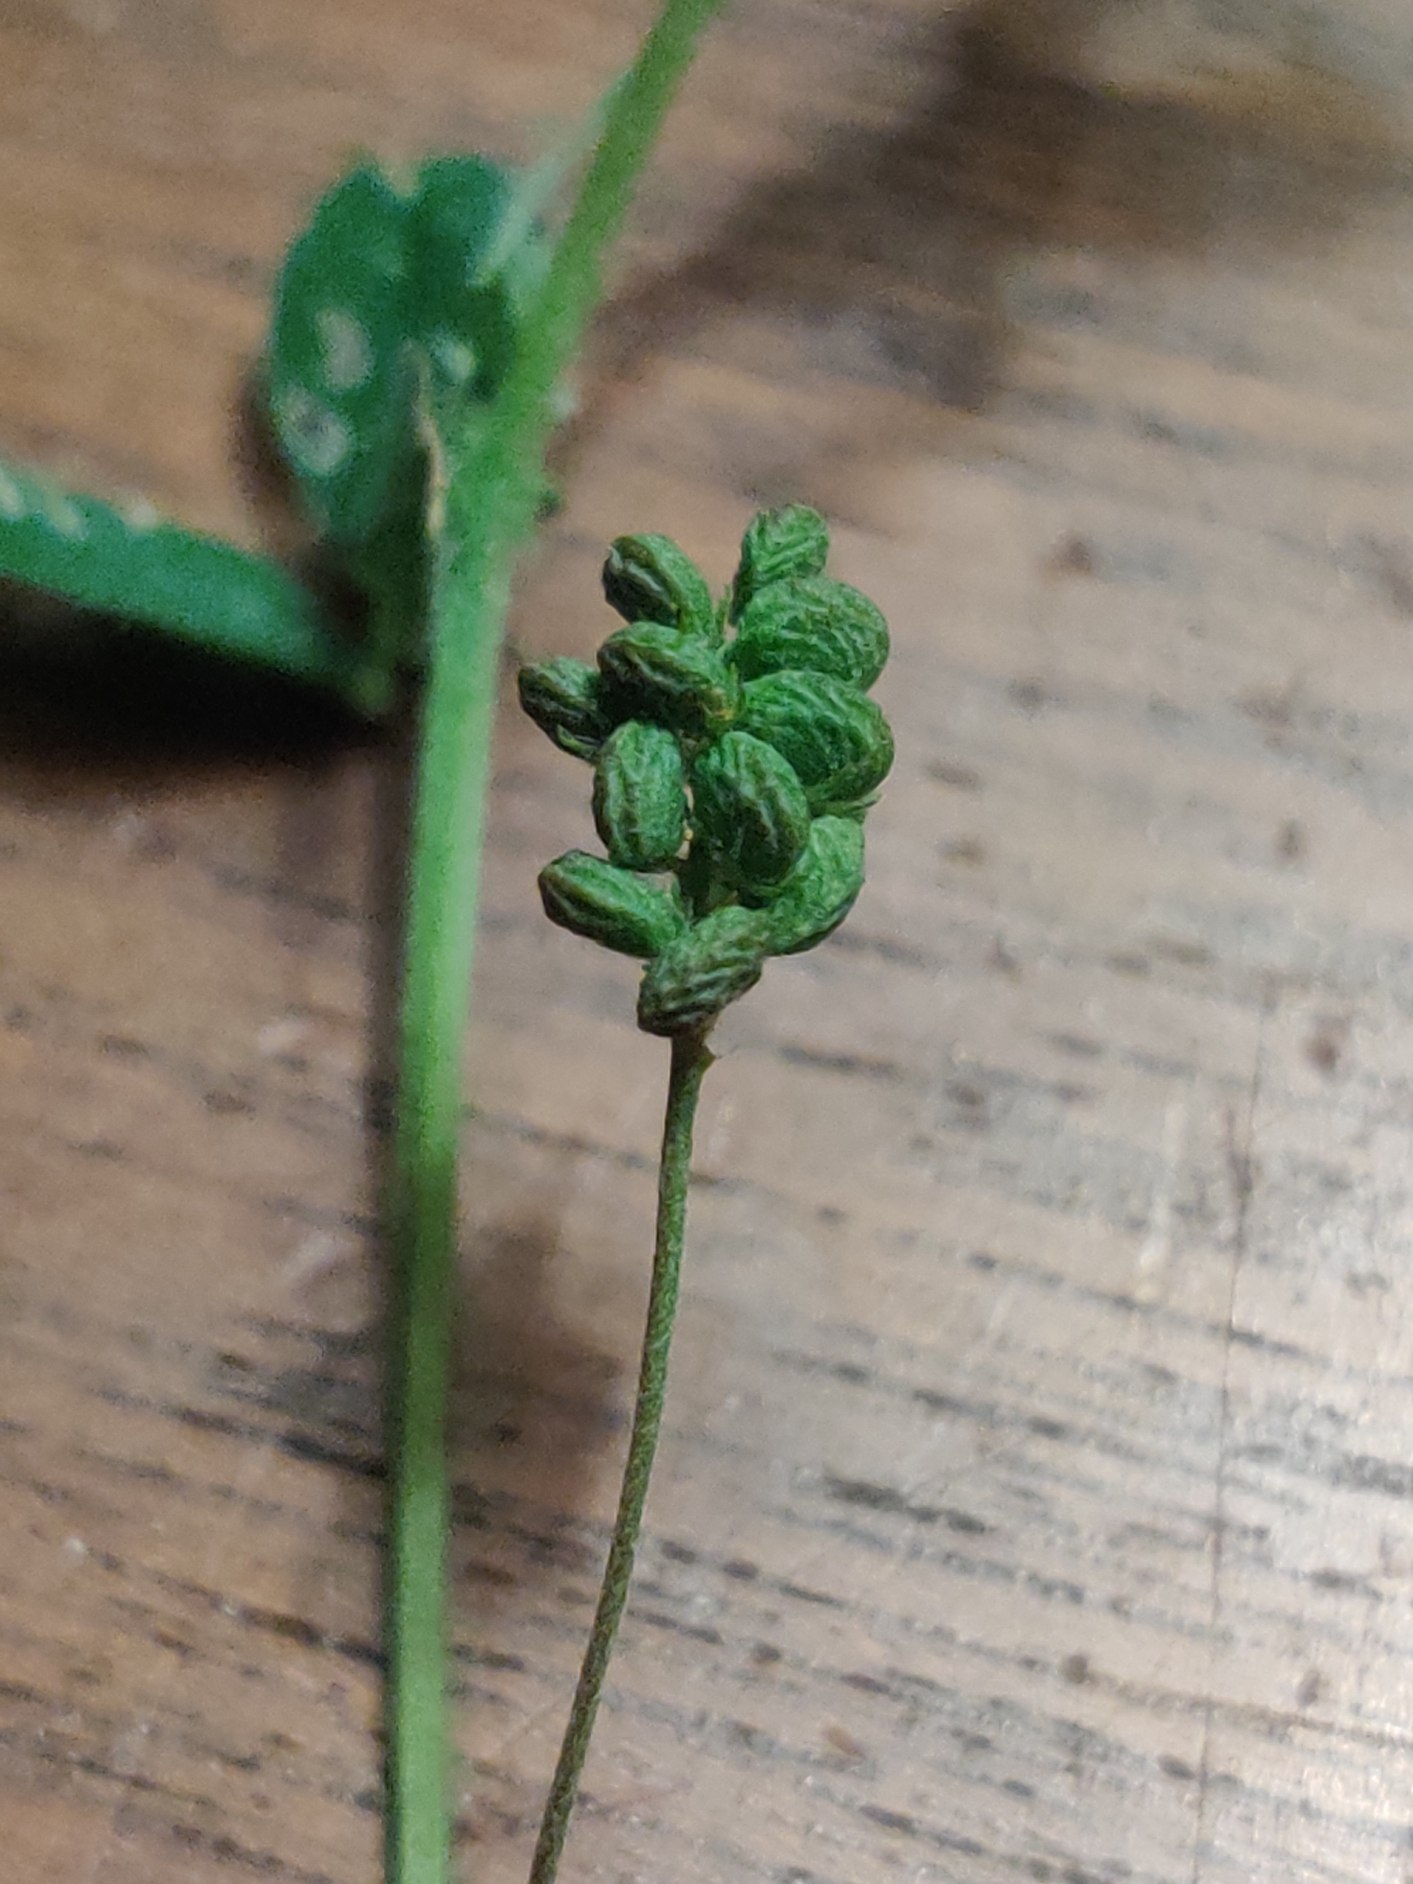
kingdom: Plantae
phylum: Tracheophyta
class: Magnoliopsida
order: Fabales
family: Fabaceae
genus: Medicago
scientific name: Medicago lupulina
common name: Humle-sneglebælg
